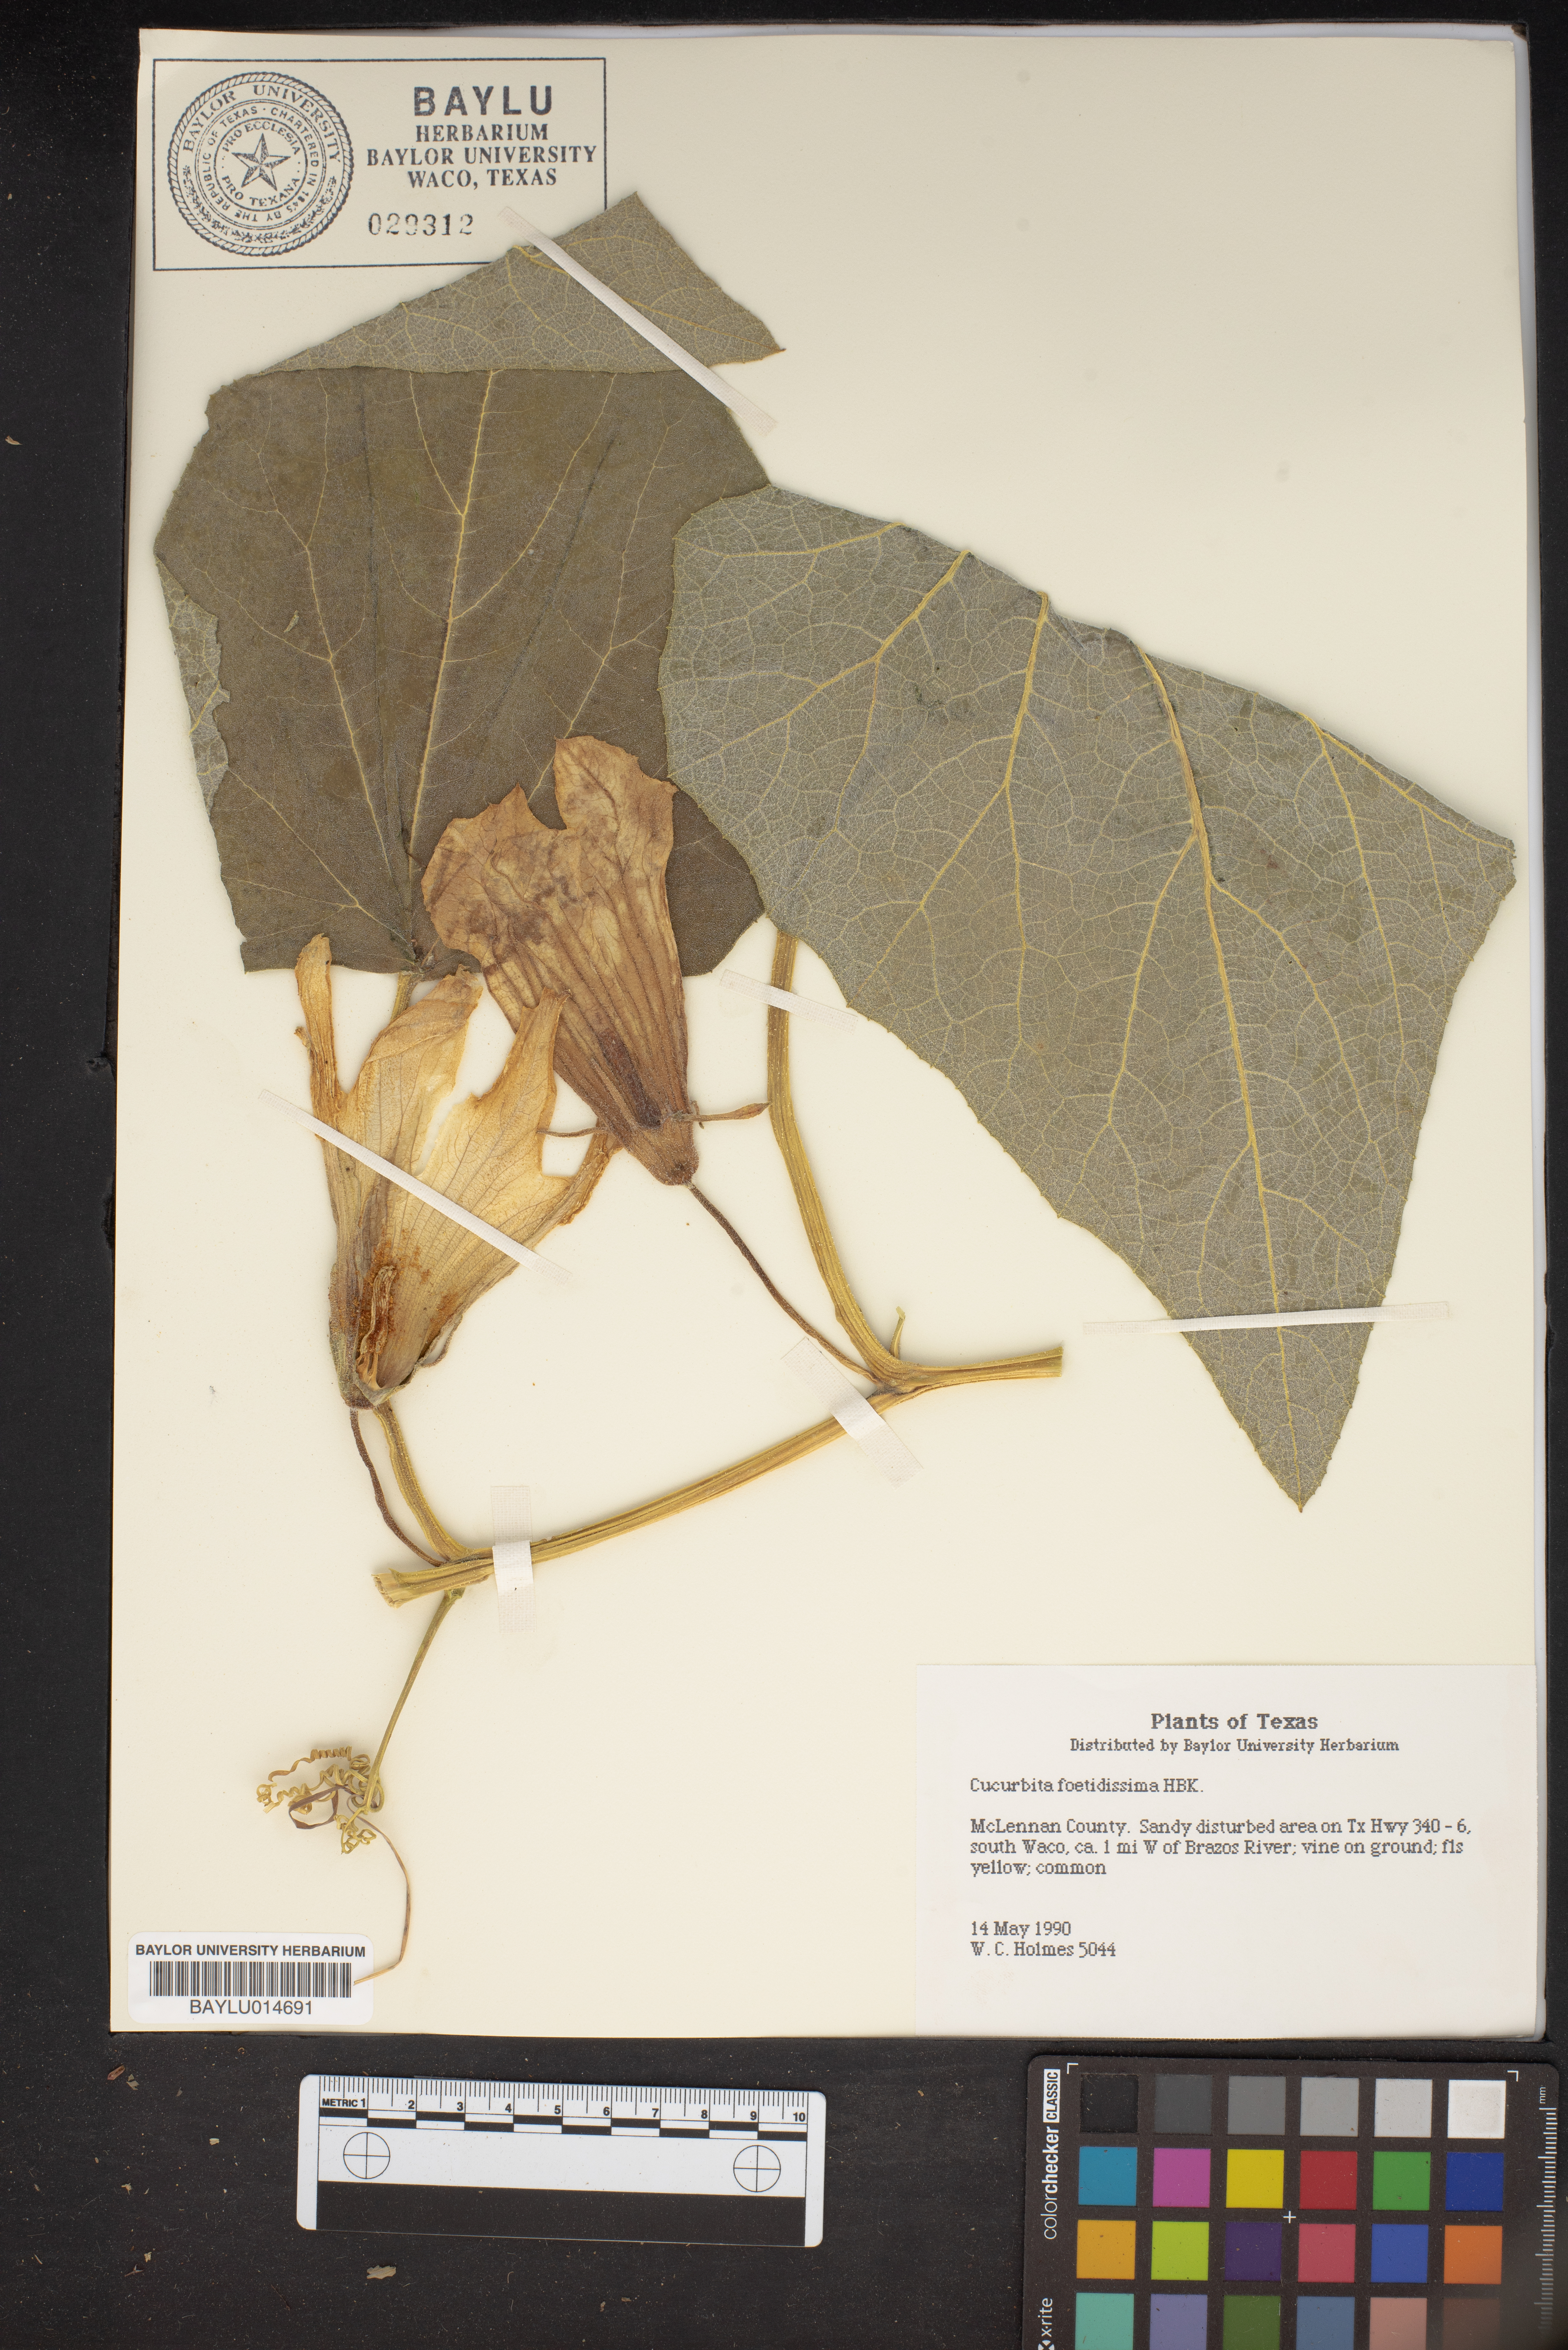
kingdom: Plantae
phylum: Tracheophyta
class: Magnoliopsida
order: Cucurbitales
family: Cucurbitaceae
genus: Cucurbita
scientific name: Cucurbita foetidissima
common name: Buffalo gourd
